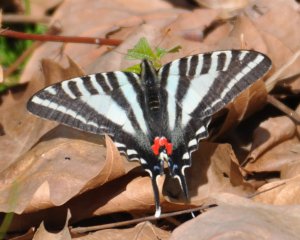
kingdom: Animalia
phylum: Arthropoda
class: Insecta
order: Lepidoptera
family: Papilionidae
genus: Protographium
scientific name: Protographium marcellus
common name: Zebra Swallowtail
